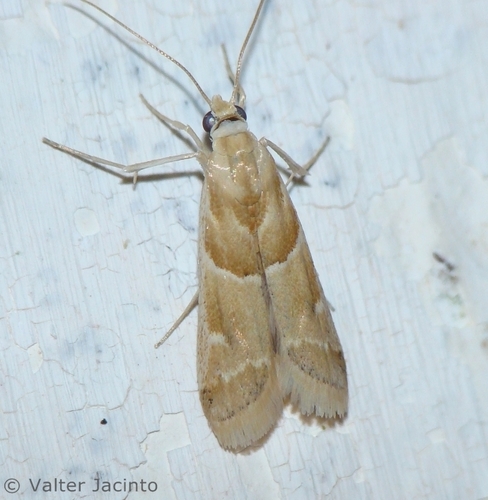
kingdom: Animalia
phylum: Arthropoda
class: Insecta
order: Lepidoptera
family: Pyralidae
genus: Ancylosis
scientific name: Ancylosis convexella
